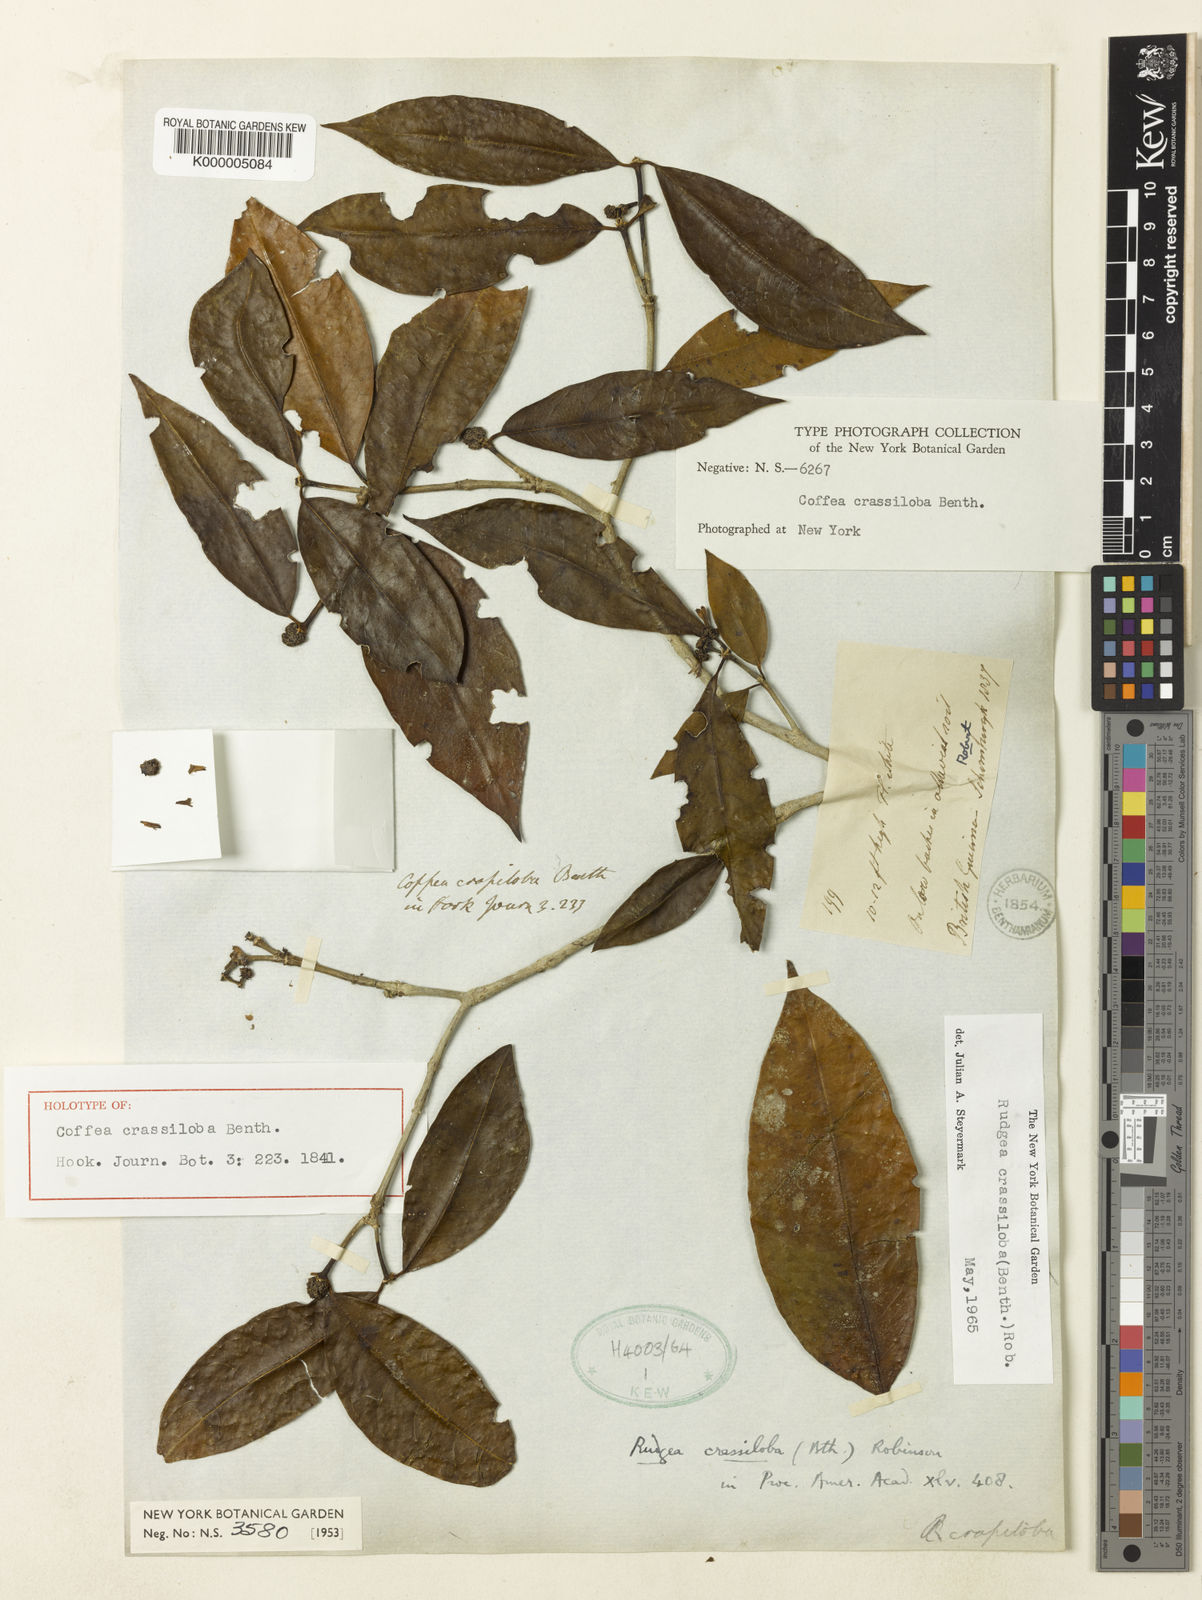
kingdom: Plantae
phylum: Tracheophyta
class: Magnoliopsida
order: Gentianales
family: Rubiaceae
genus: Rudgea
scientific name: Rudgea crassiloba
